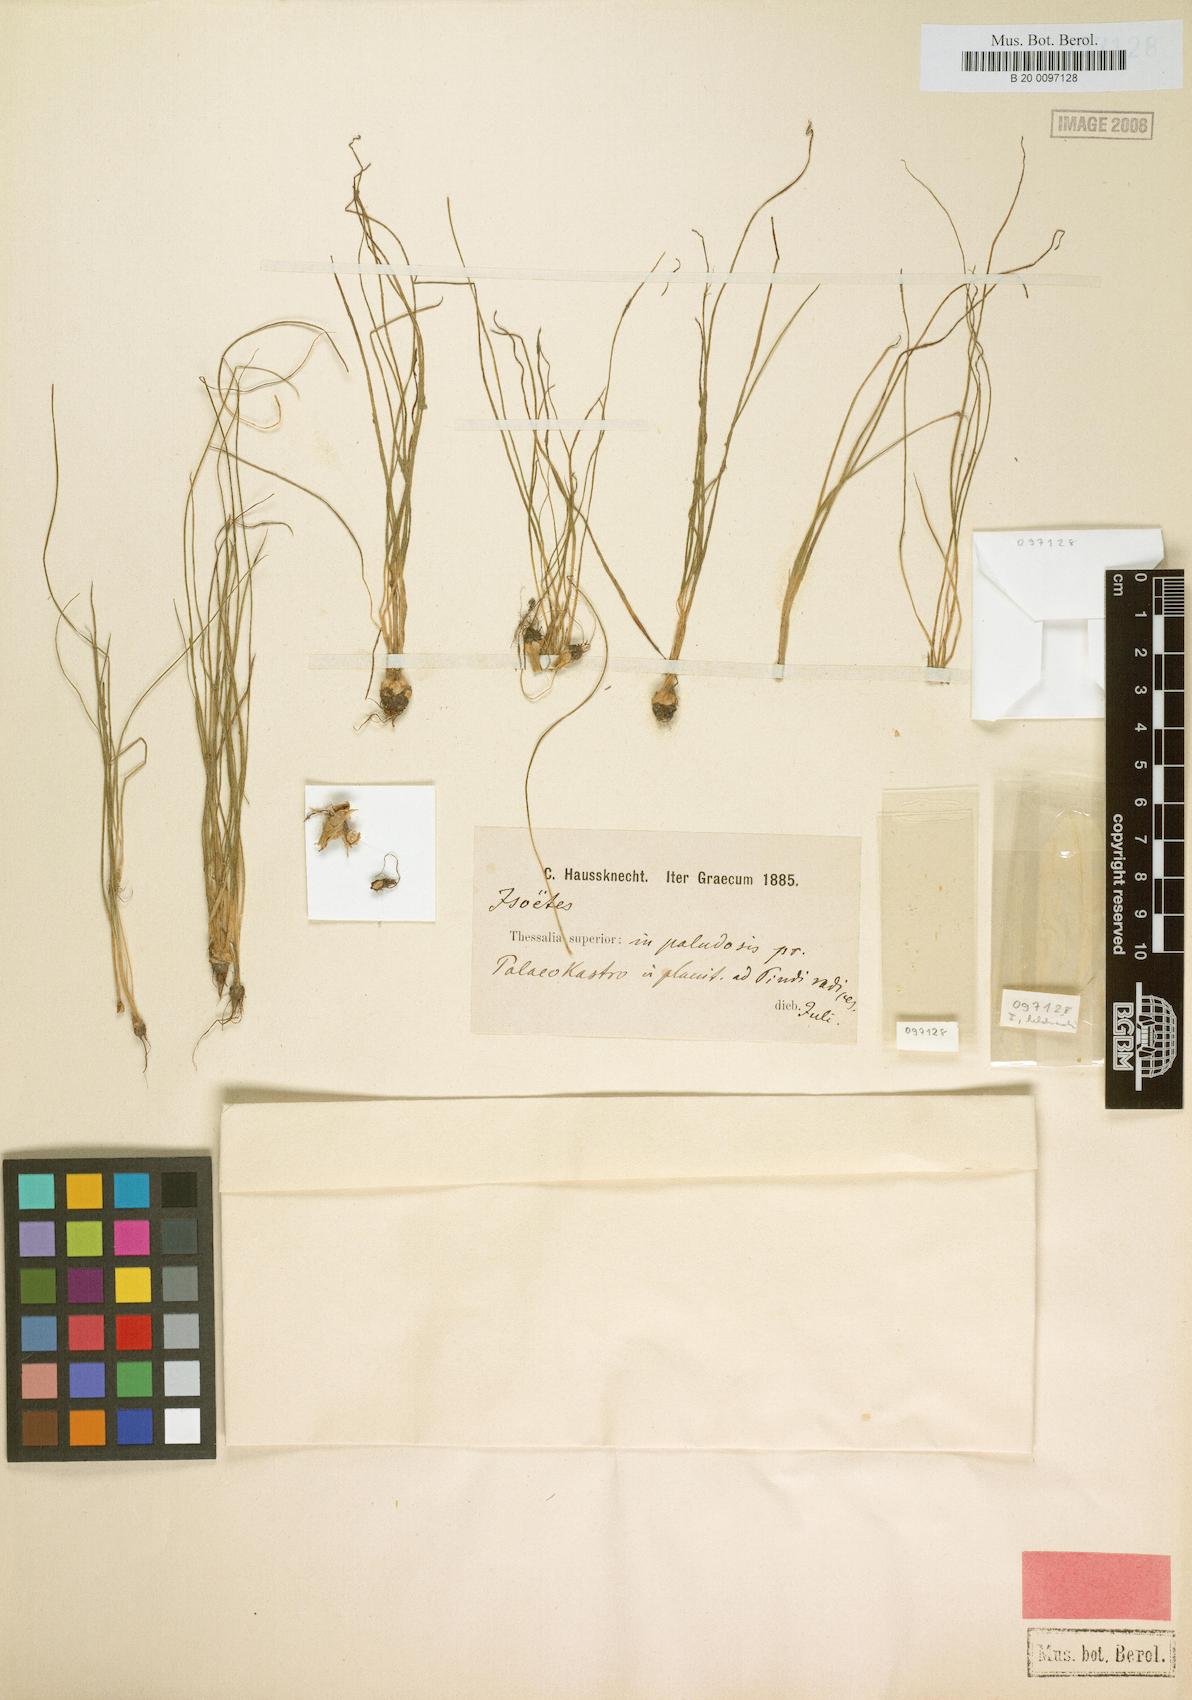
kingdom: Plantae
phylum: Tracheophyta
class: Lycopodiopsida
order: Isoetales
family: Isoetaceae
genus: Isoetes
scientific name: Isoetes heldreichii
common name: Pindus quillwort
